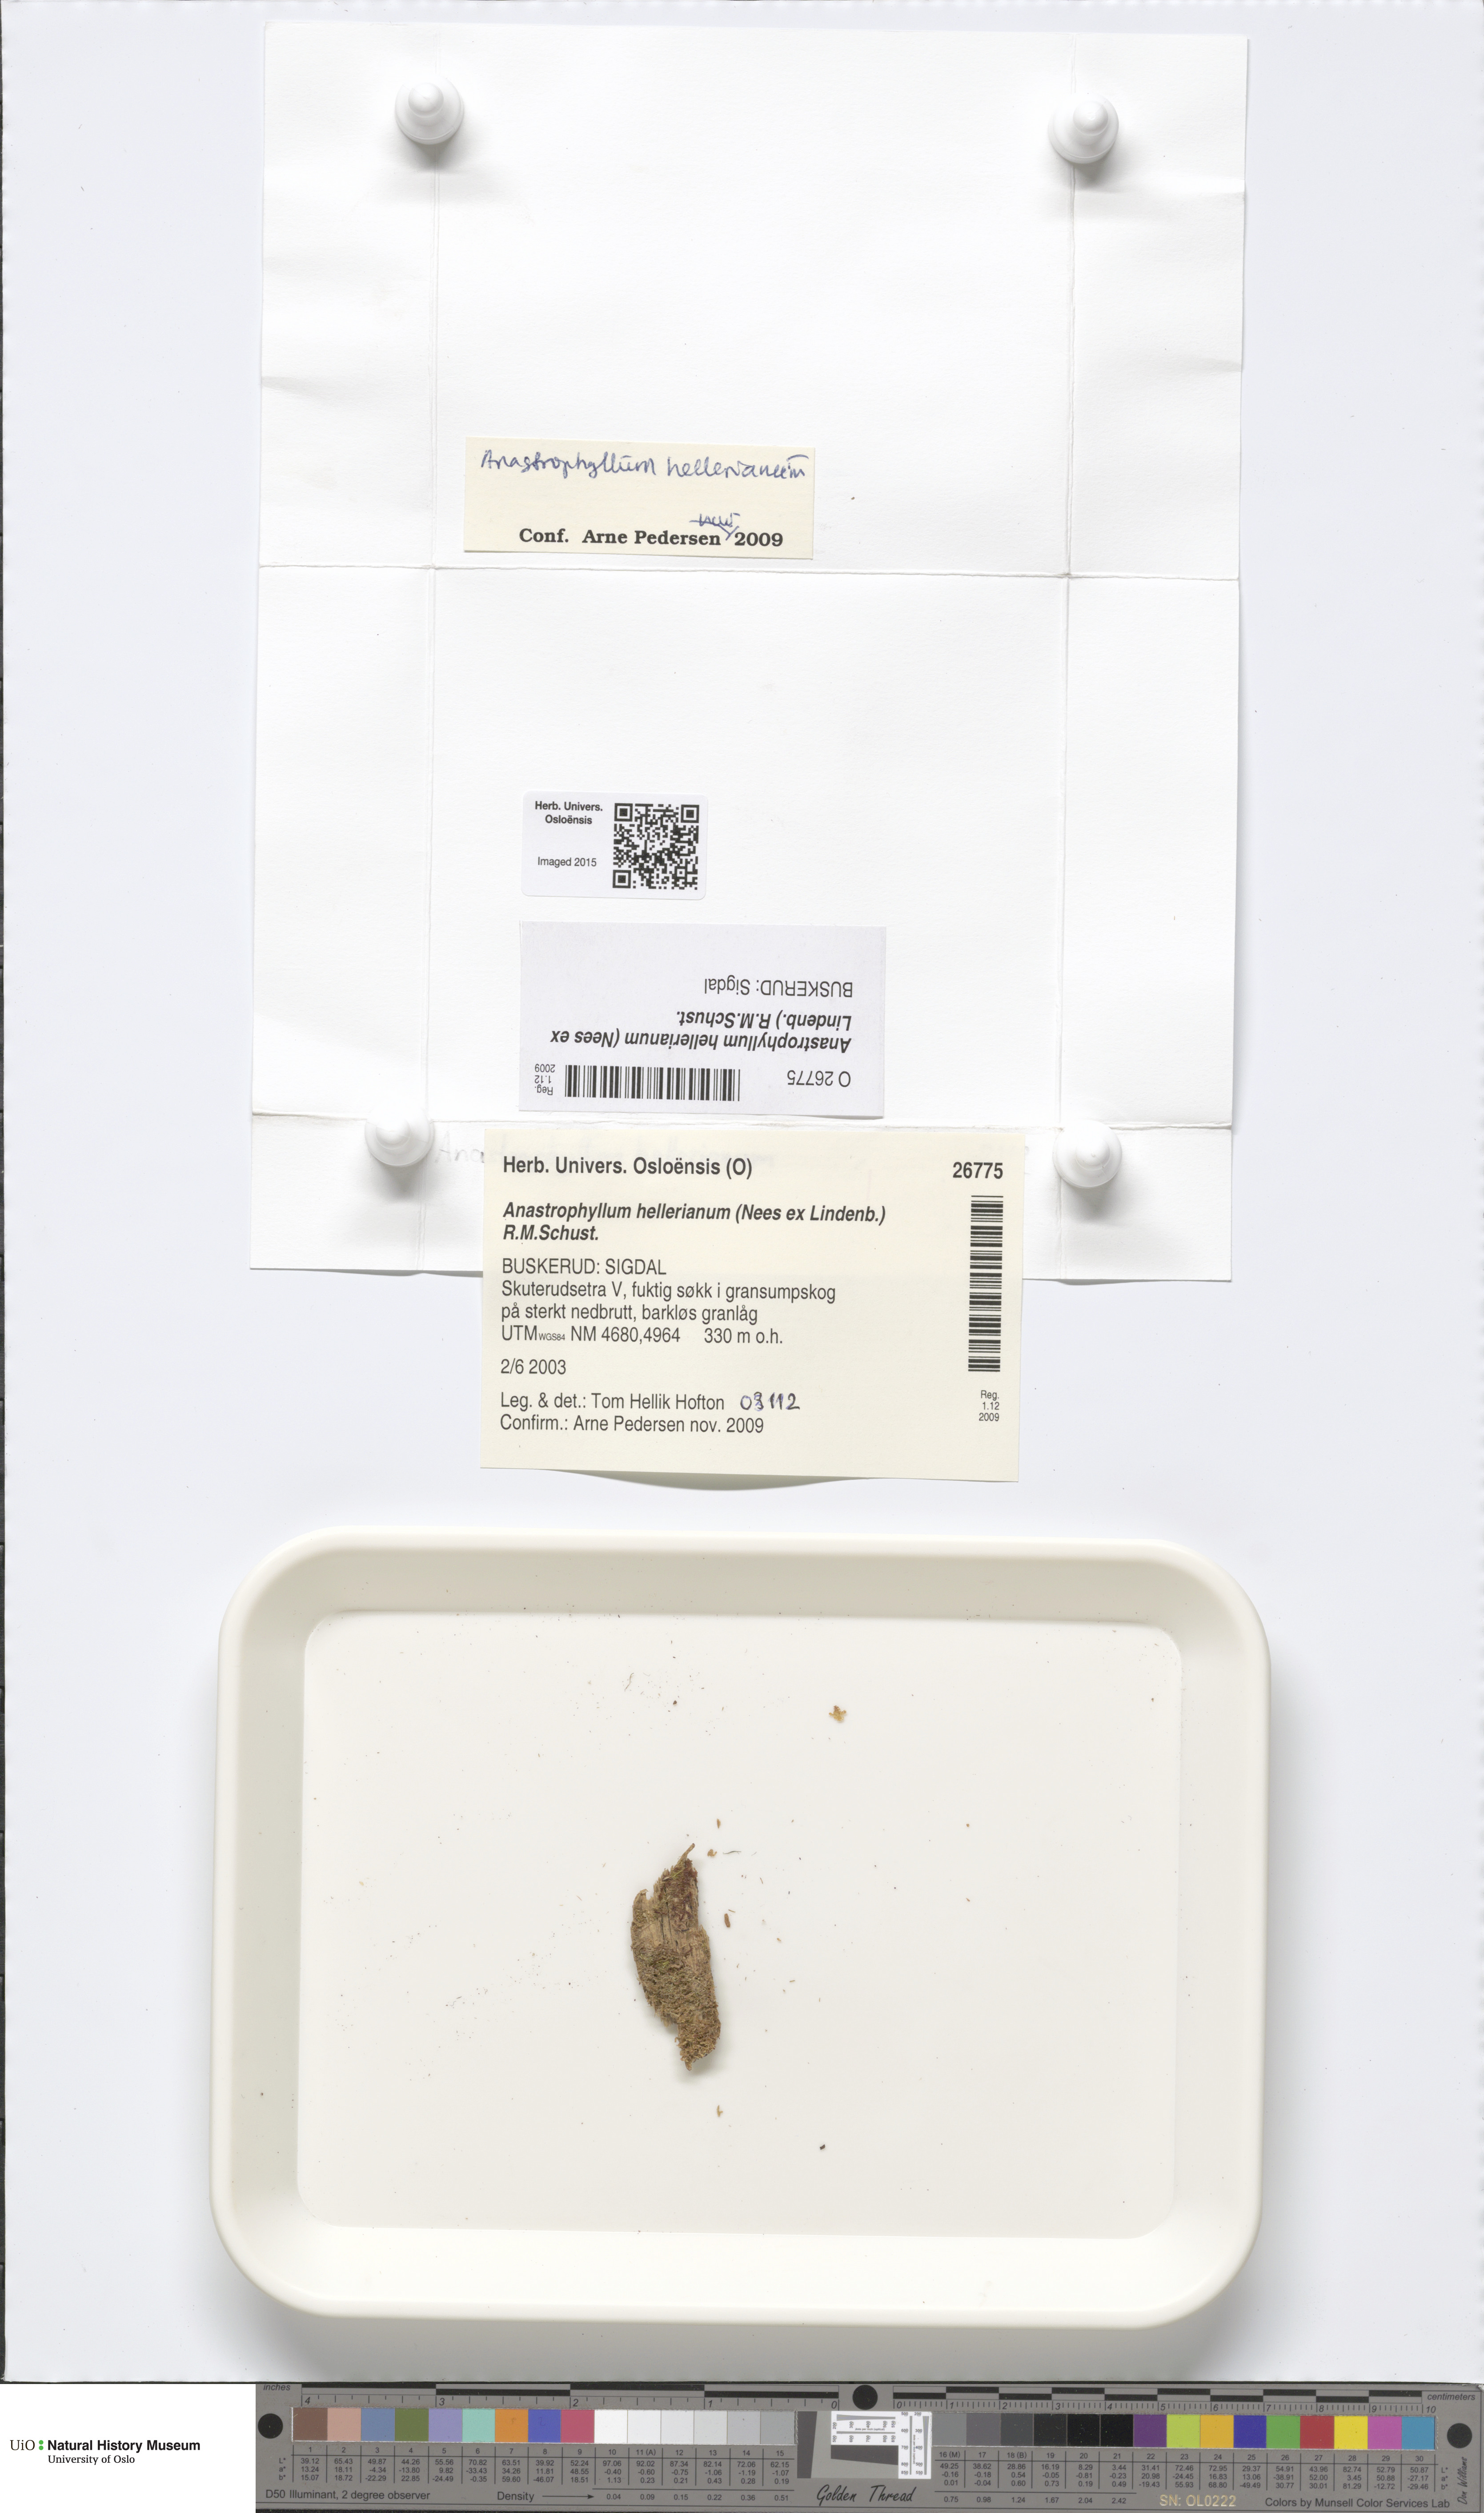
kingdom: Plantae
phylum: Marchantiophyta
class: Jungermanniopsida
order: Jungermanniales
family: Anastrophyllaceae
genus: Crossocalyx
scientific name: Crossocalyx hellerianus
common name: Heller's notchwort
